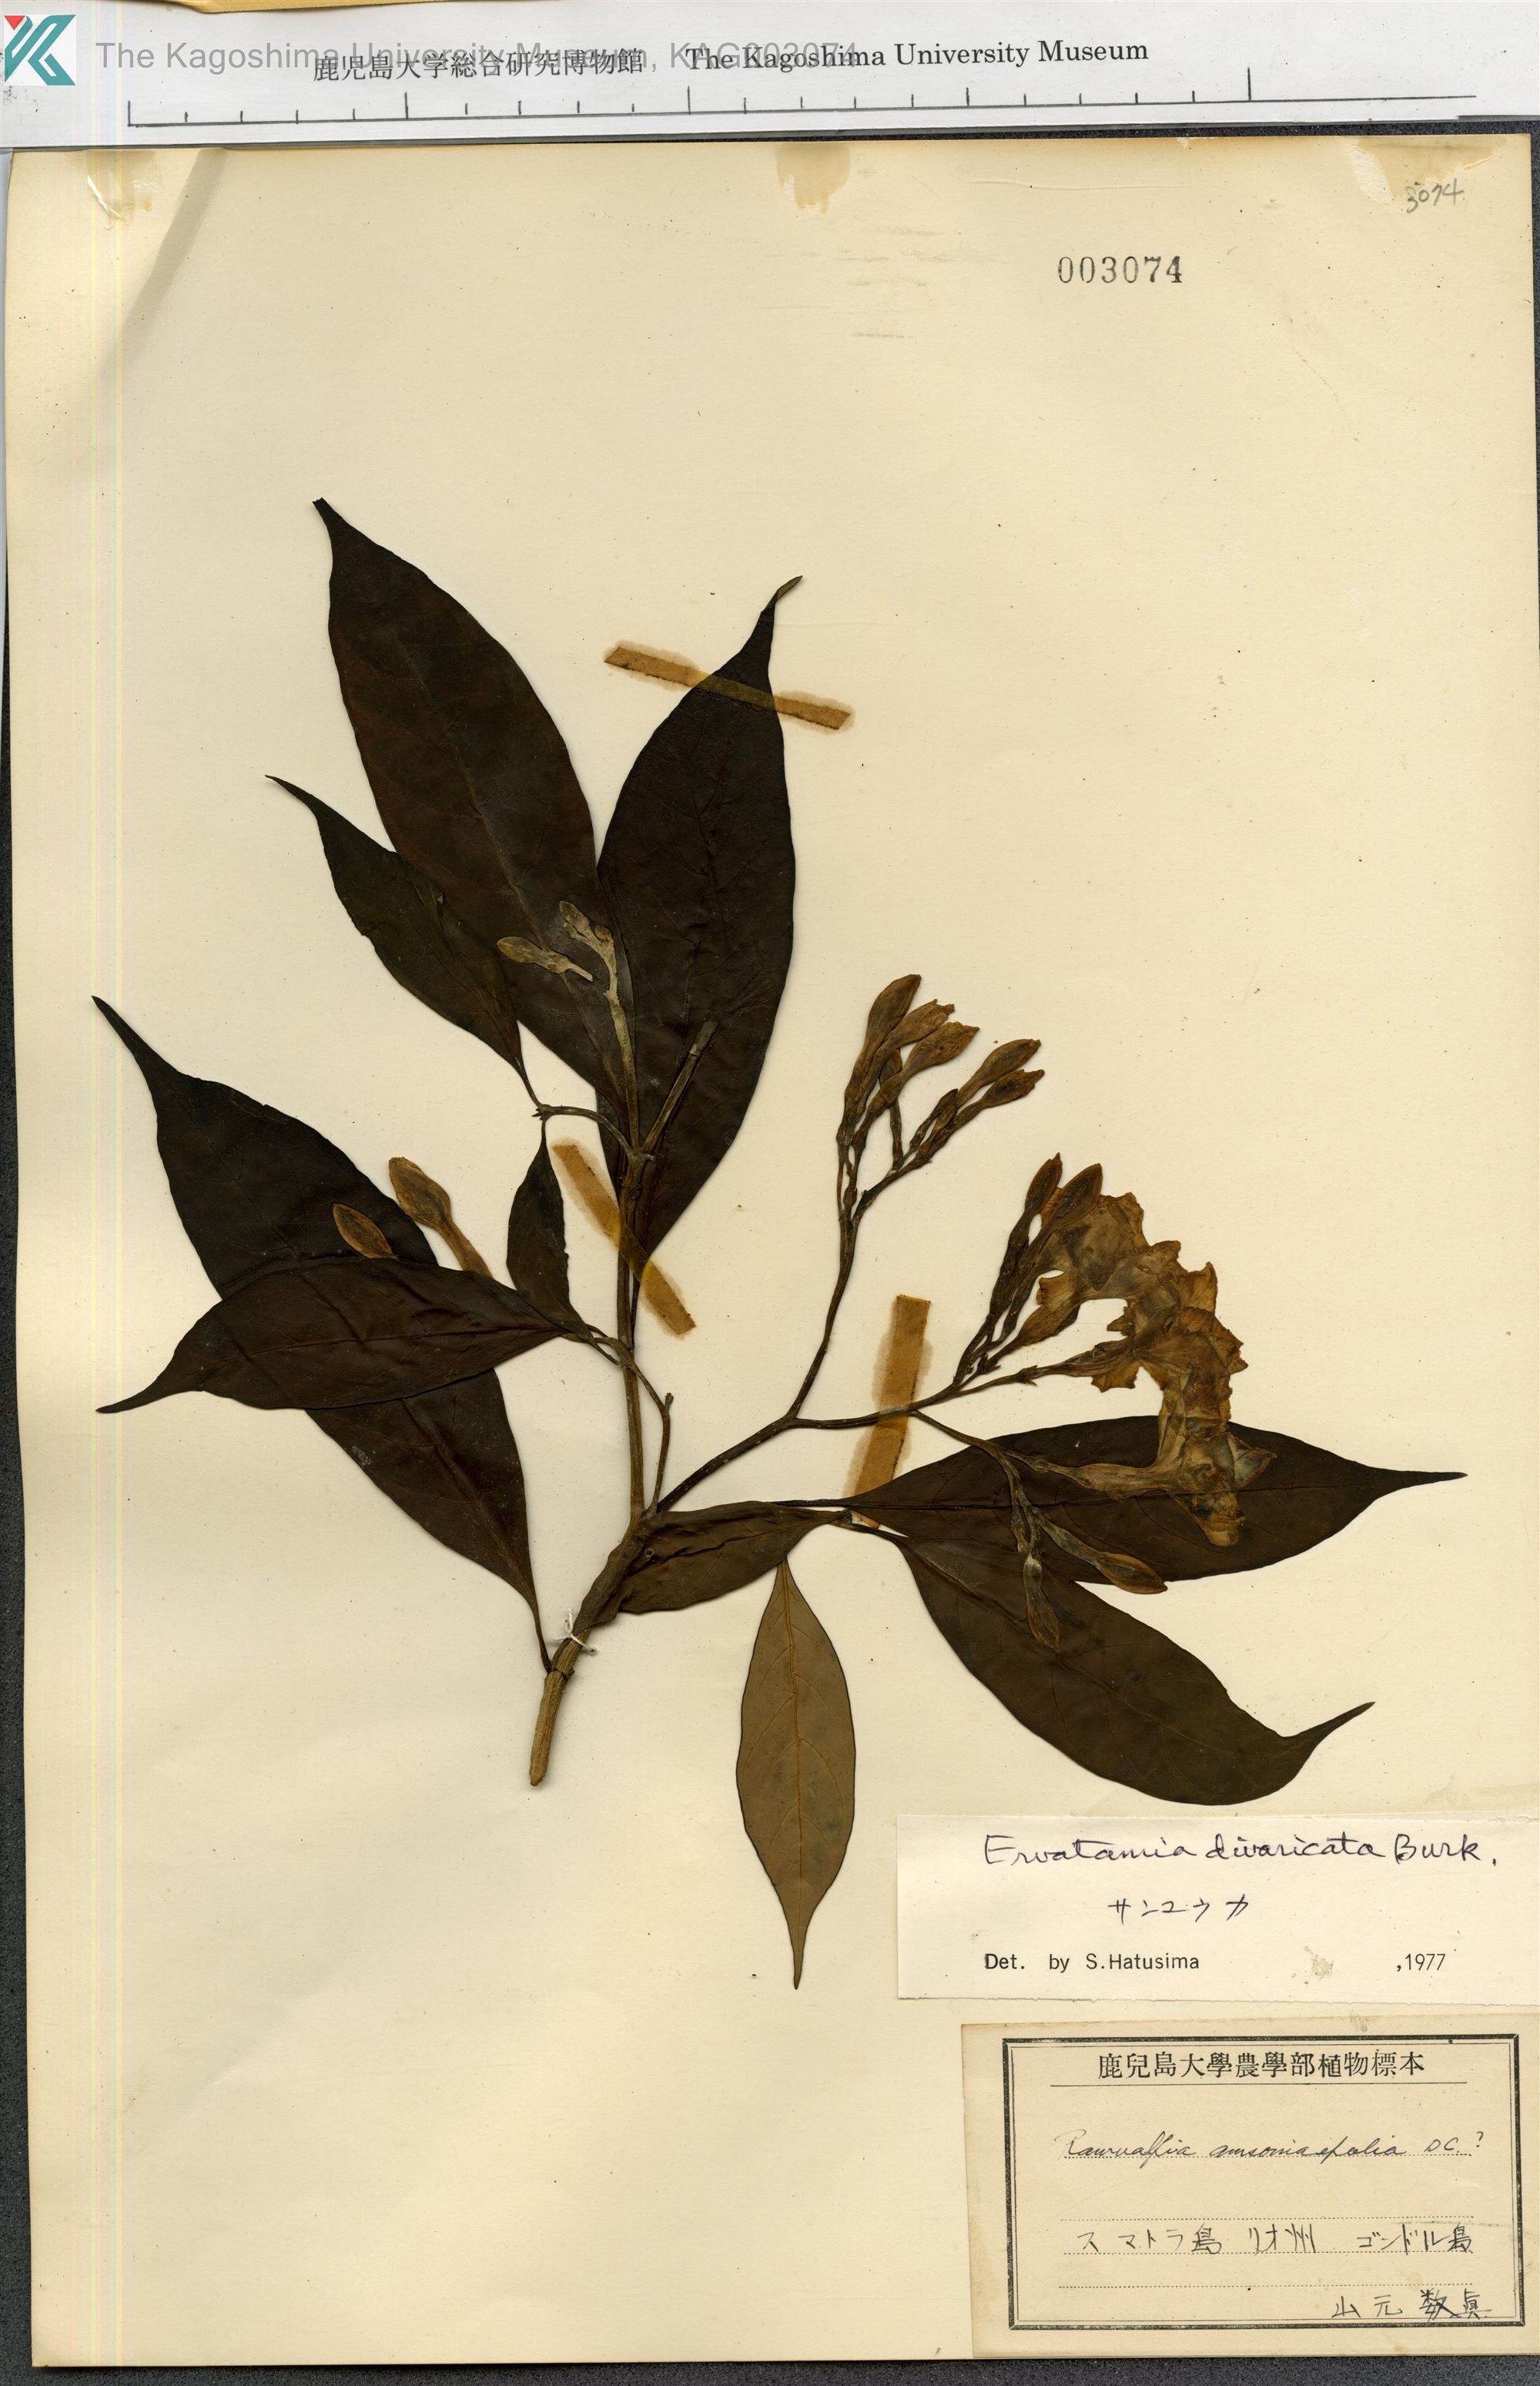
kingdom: Plantae
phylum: Tracheophyta
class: Magnoliopsida
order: Gentianales
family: Apocynaceae
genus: Tabernaemontana
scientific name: Tabernaemontana divaricata
